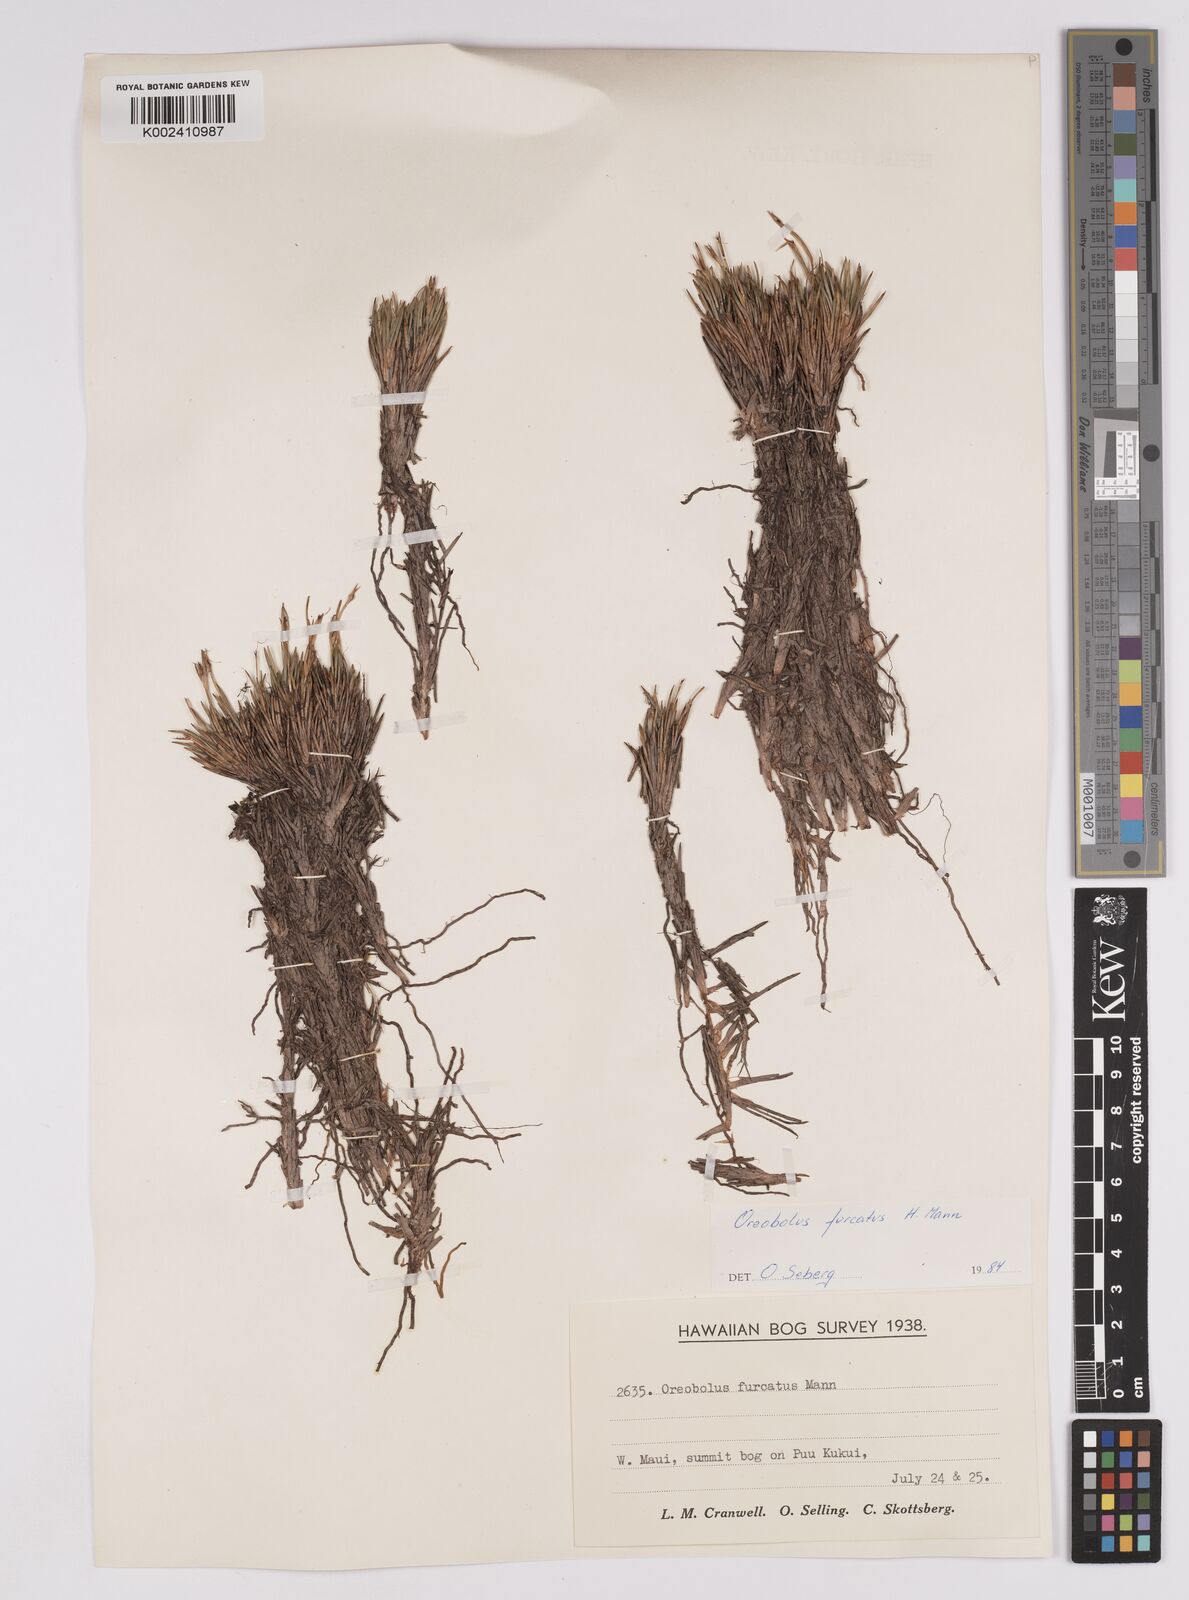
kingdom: Plantae
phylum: Tracheophyta
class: Liliopsida
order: Poales
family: Cyperaceae
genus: Oreobolus
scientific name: Oreobolus furcatus
